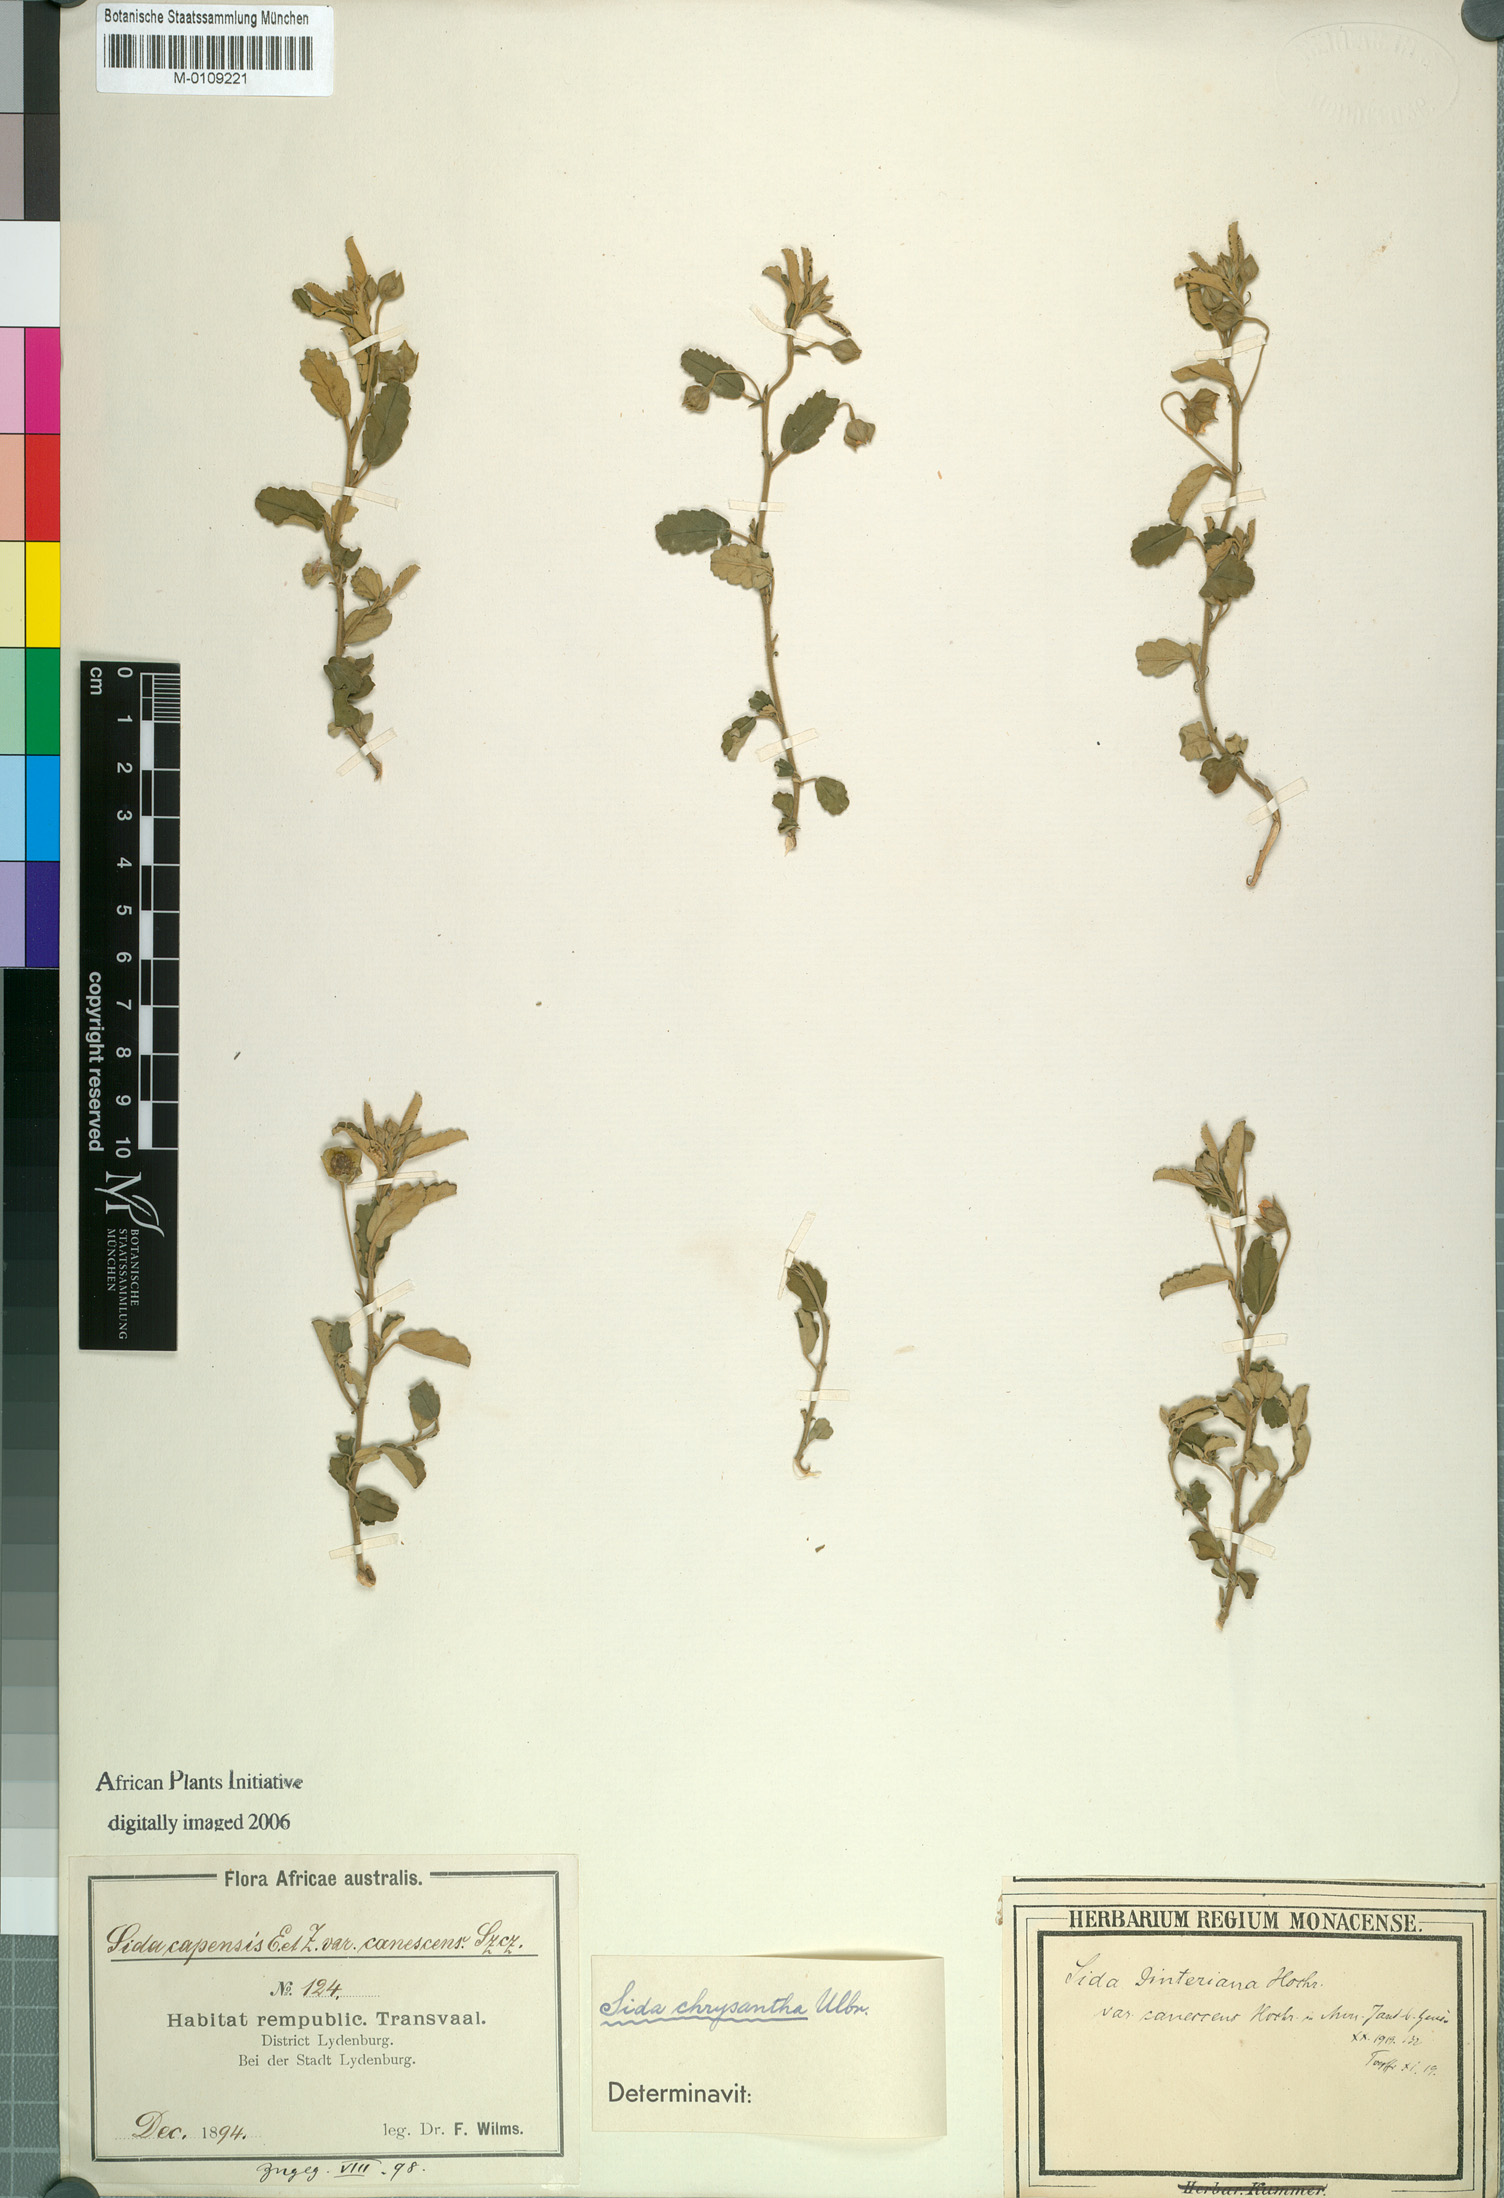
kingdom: Plantae
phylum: Tracheophyta
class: Magnoliopsida
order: Malvales
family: Malvaceae
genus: Sida
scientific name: Sida chrysantha
